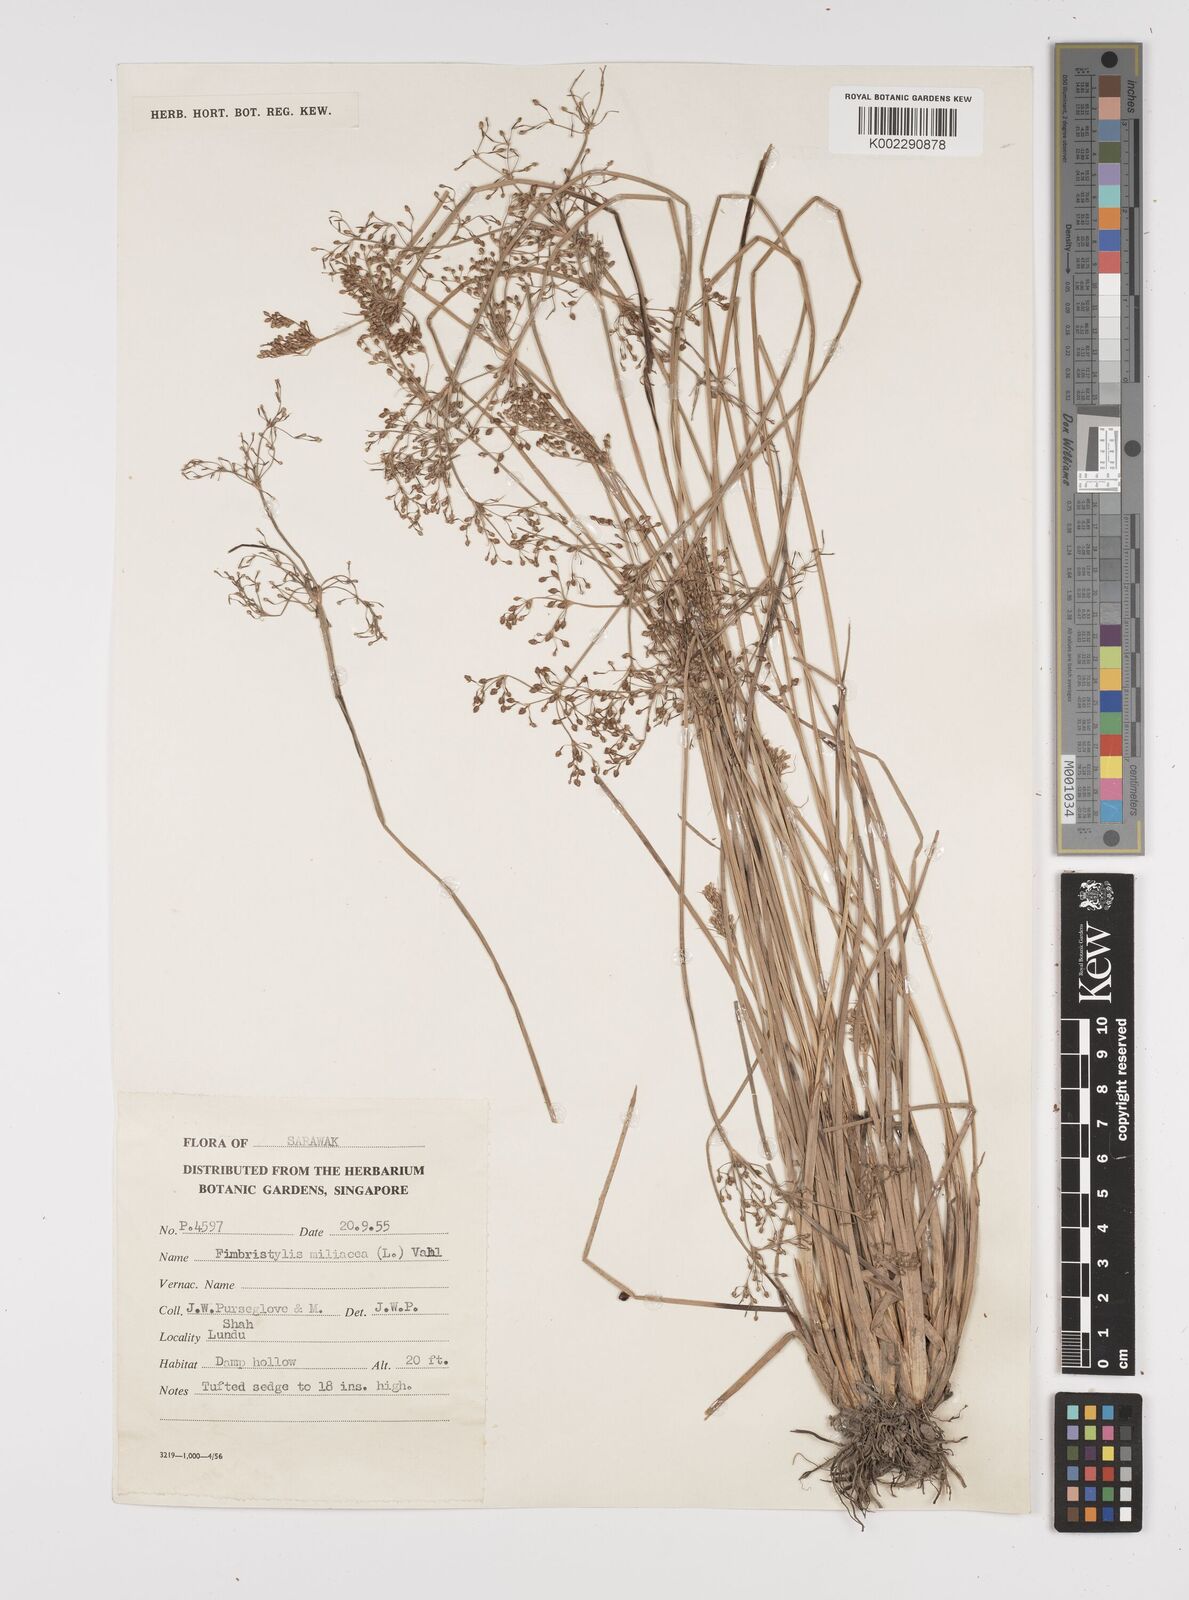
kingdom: Plantae
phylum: Tracheophyta
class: Liliopsida
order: Poales
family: Cyperaceae
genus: Fimbristylis
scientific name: Fimbristylis littoralis
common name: Fimbry
